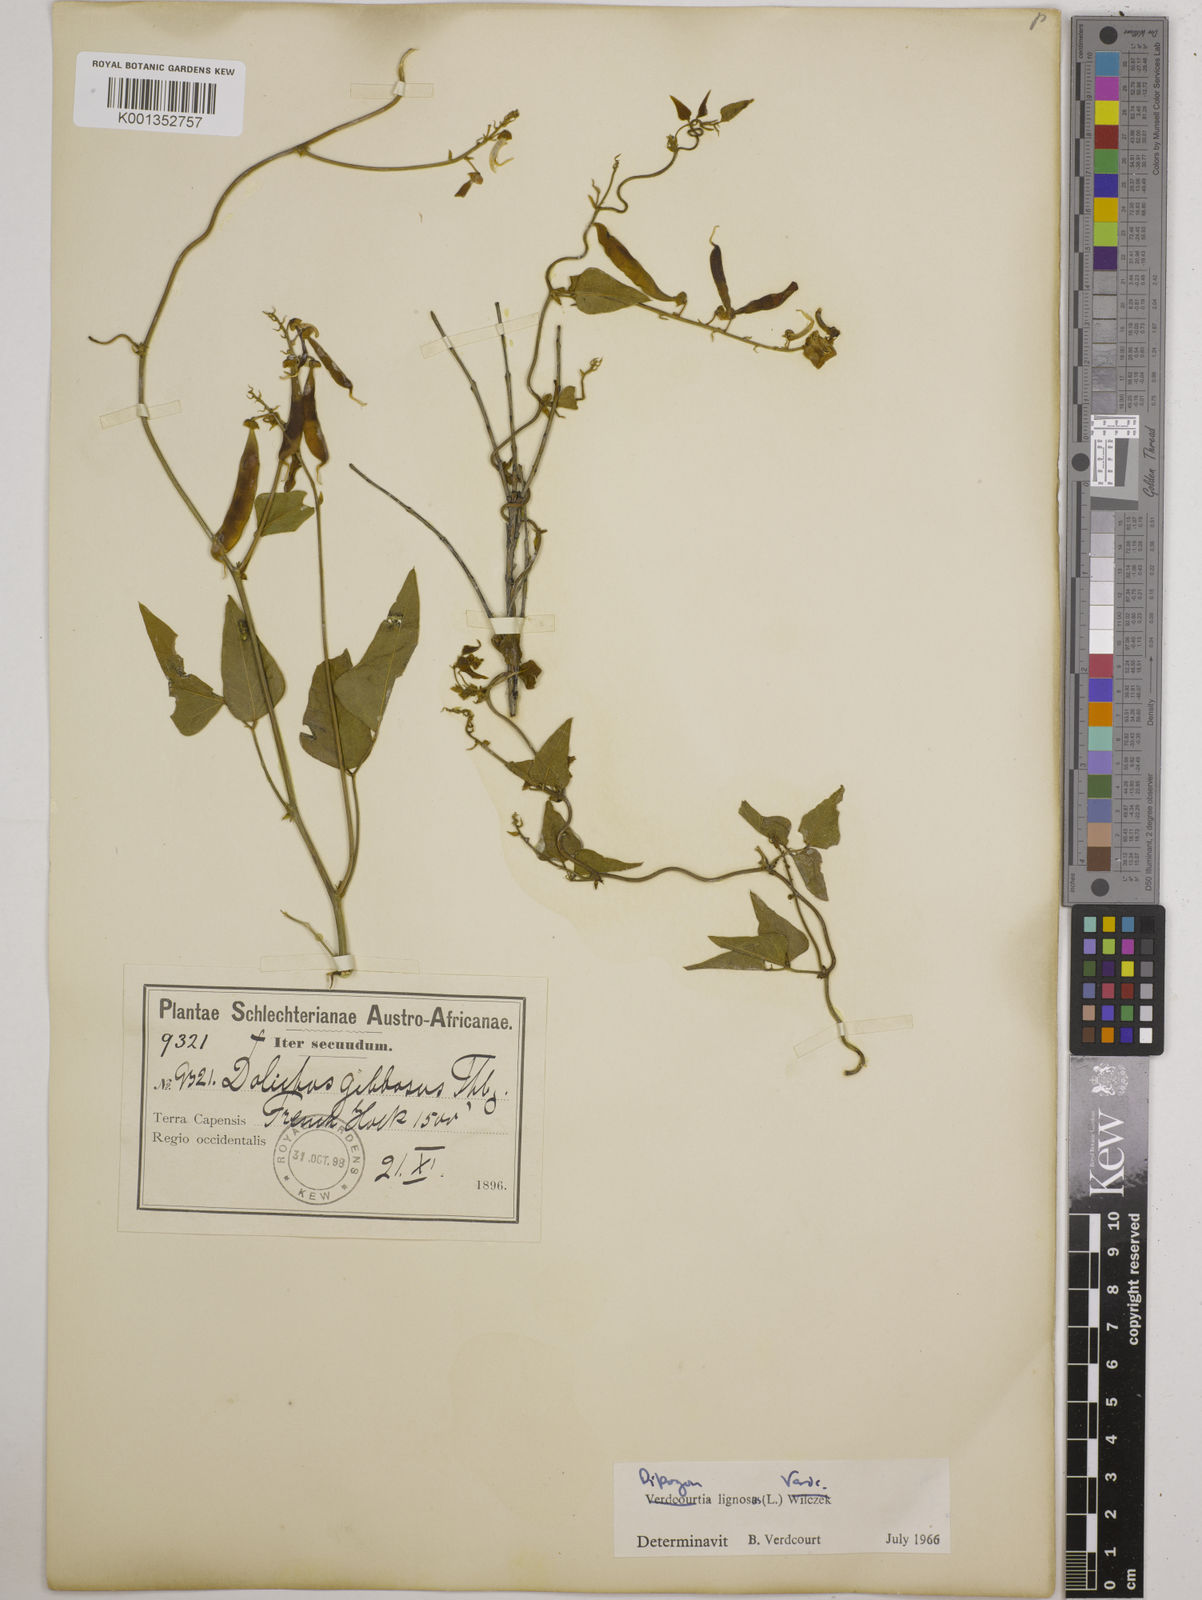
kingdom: Plantae
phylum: Tracheophyta
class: Magnoliopsida
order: Fabales
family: Fabaceae
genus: Dipogon
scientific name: Dipogon lignosus
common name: Okie bean
